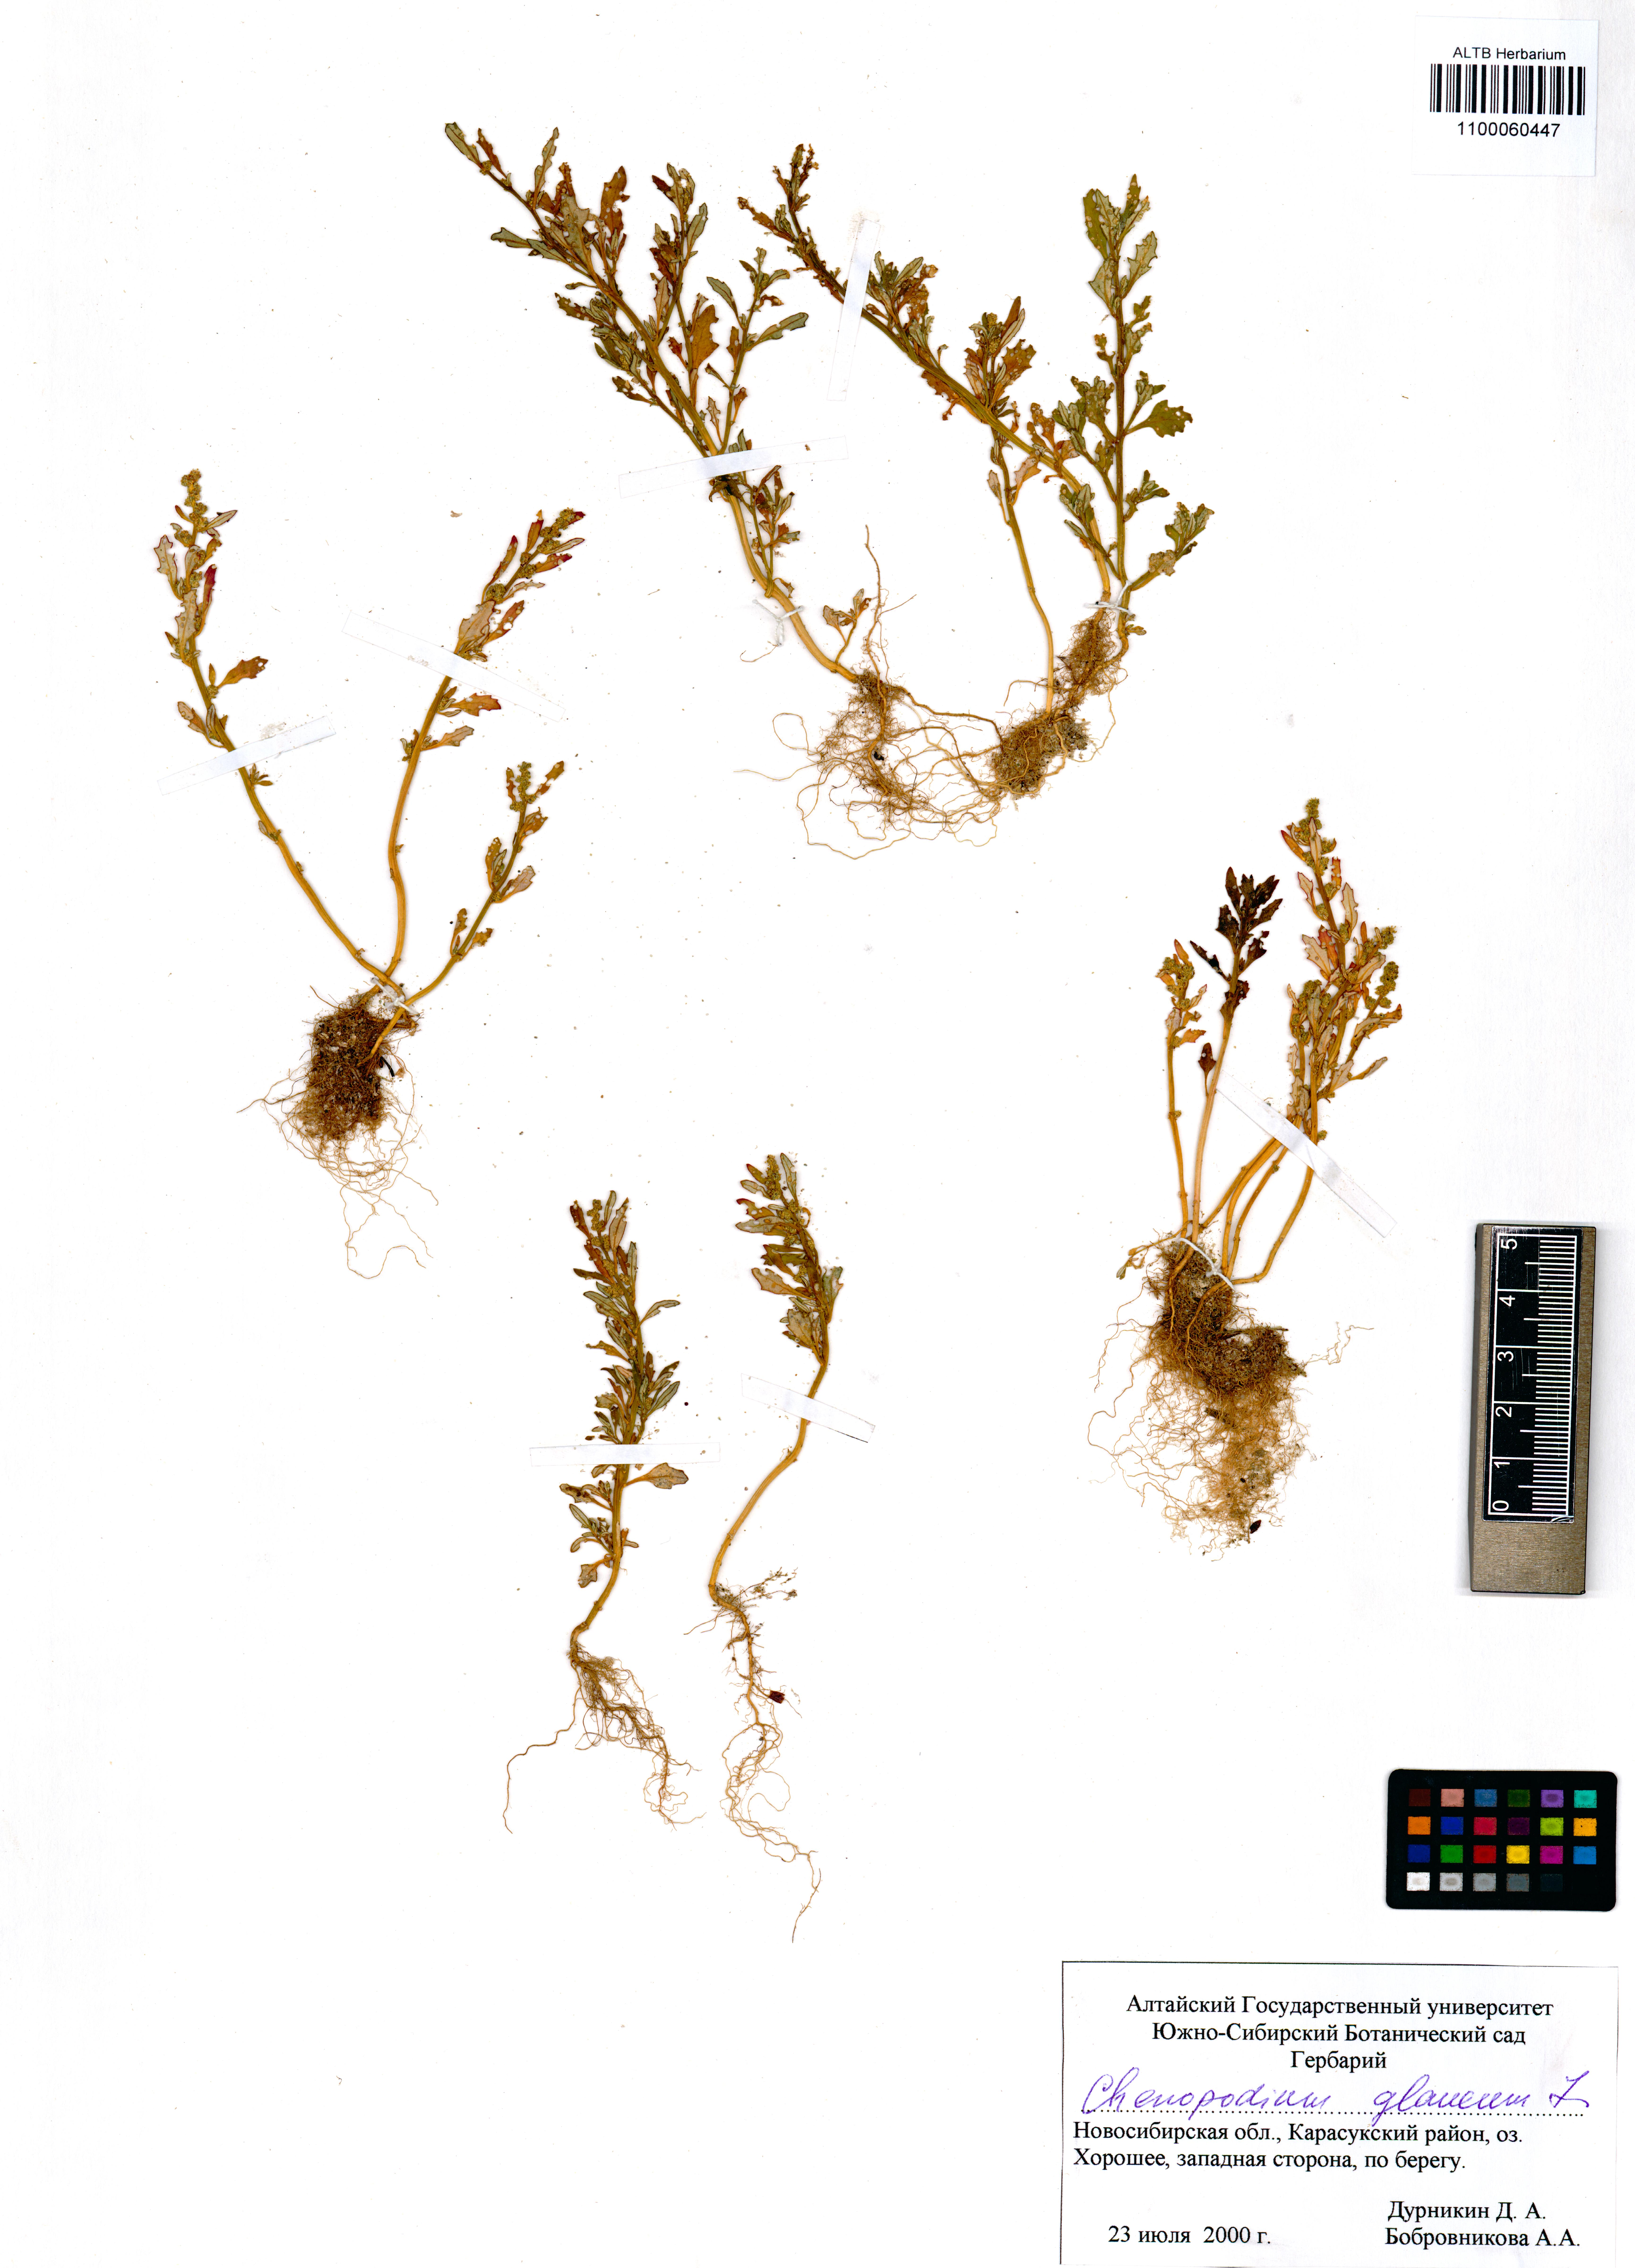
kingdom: Plantae
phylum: Tracheophyta
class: Magnoliopsida
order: Caryophyllales
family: Amaranthaceae
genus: Oxybasis
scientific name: Oxybasis glauca
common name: Glaucous goosefoot
